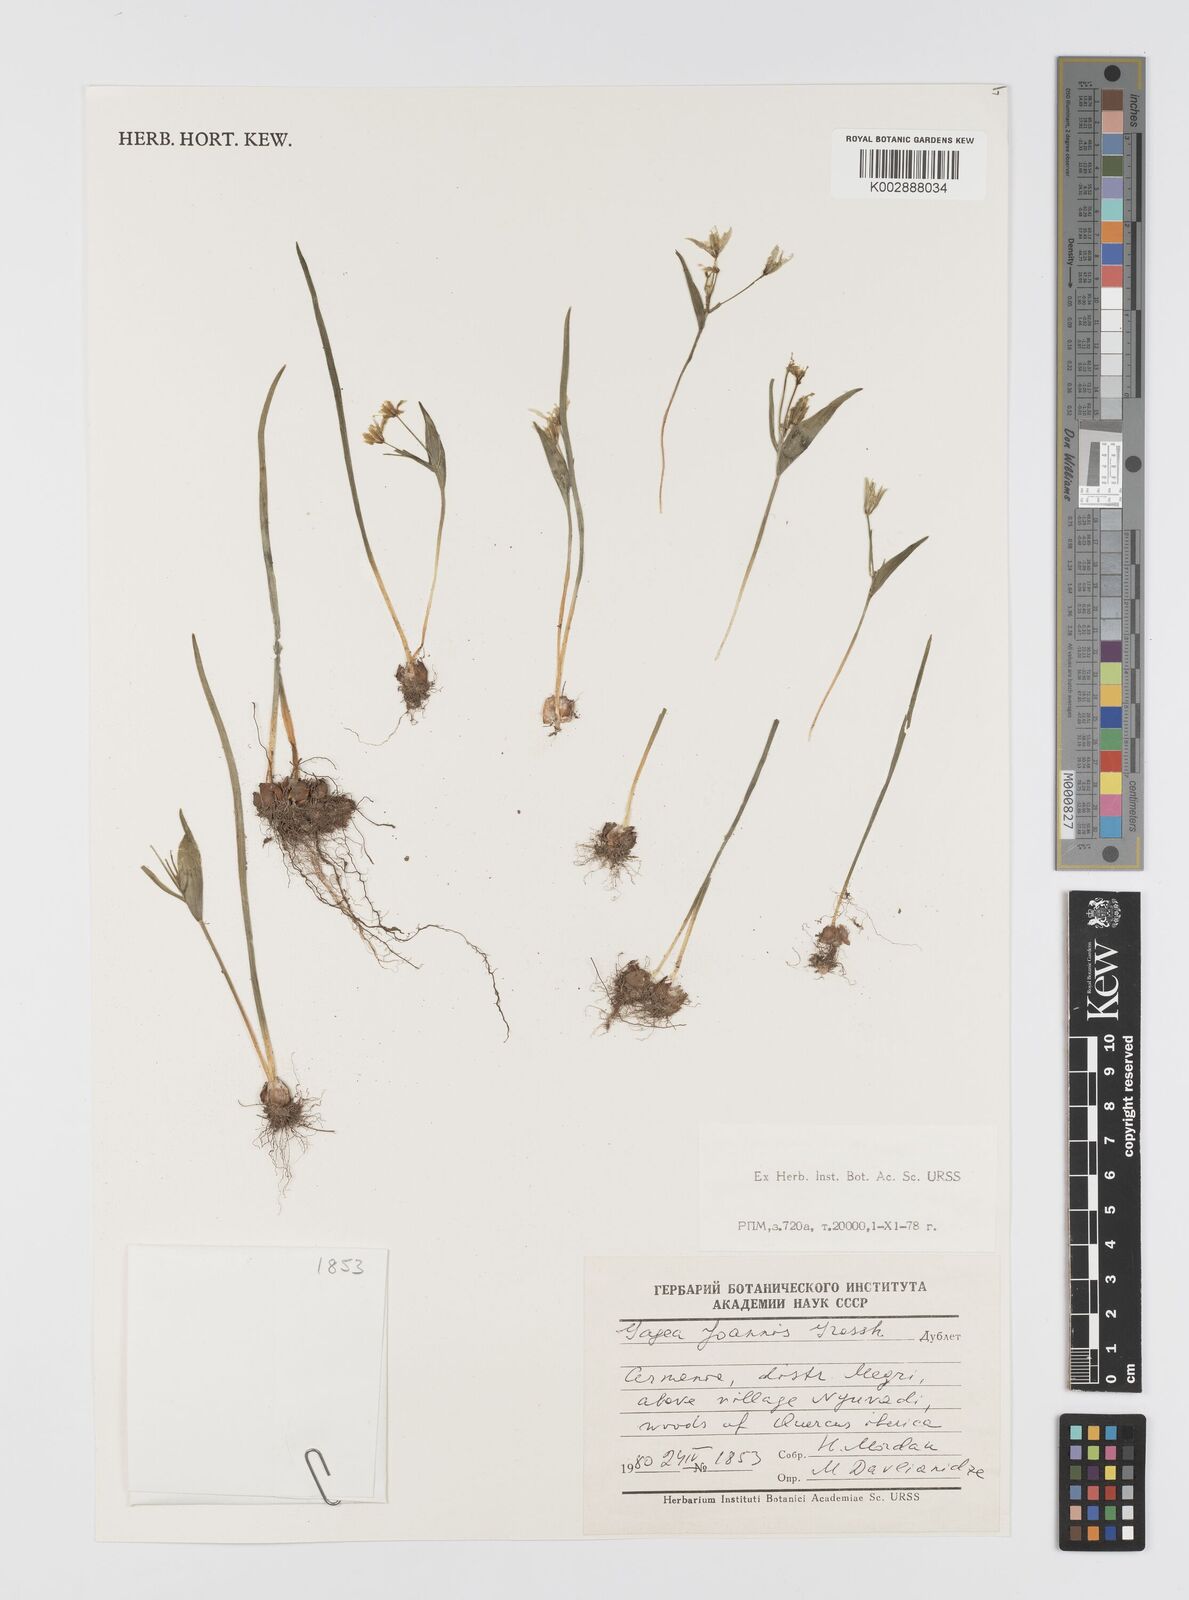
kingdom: Plantae
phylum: Tracheophyta
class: Liliopsida
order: Liliales
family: Liliaceae
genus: Gagea
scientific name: Gagea joannis
